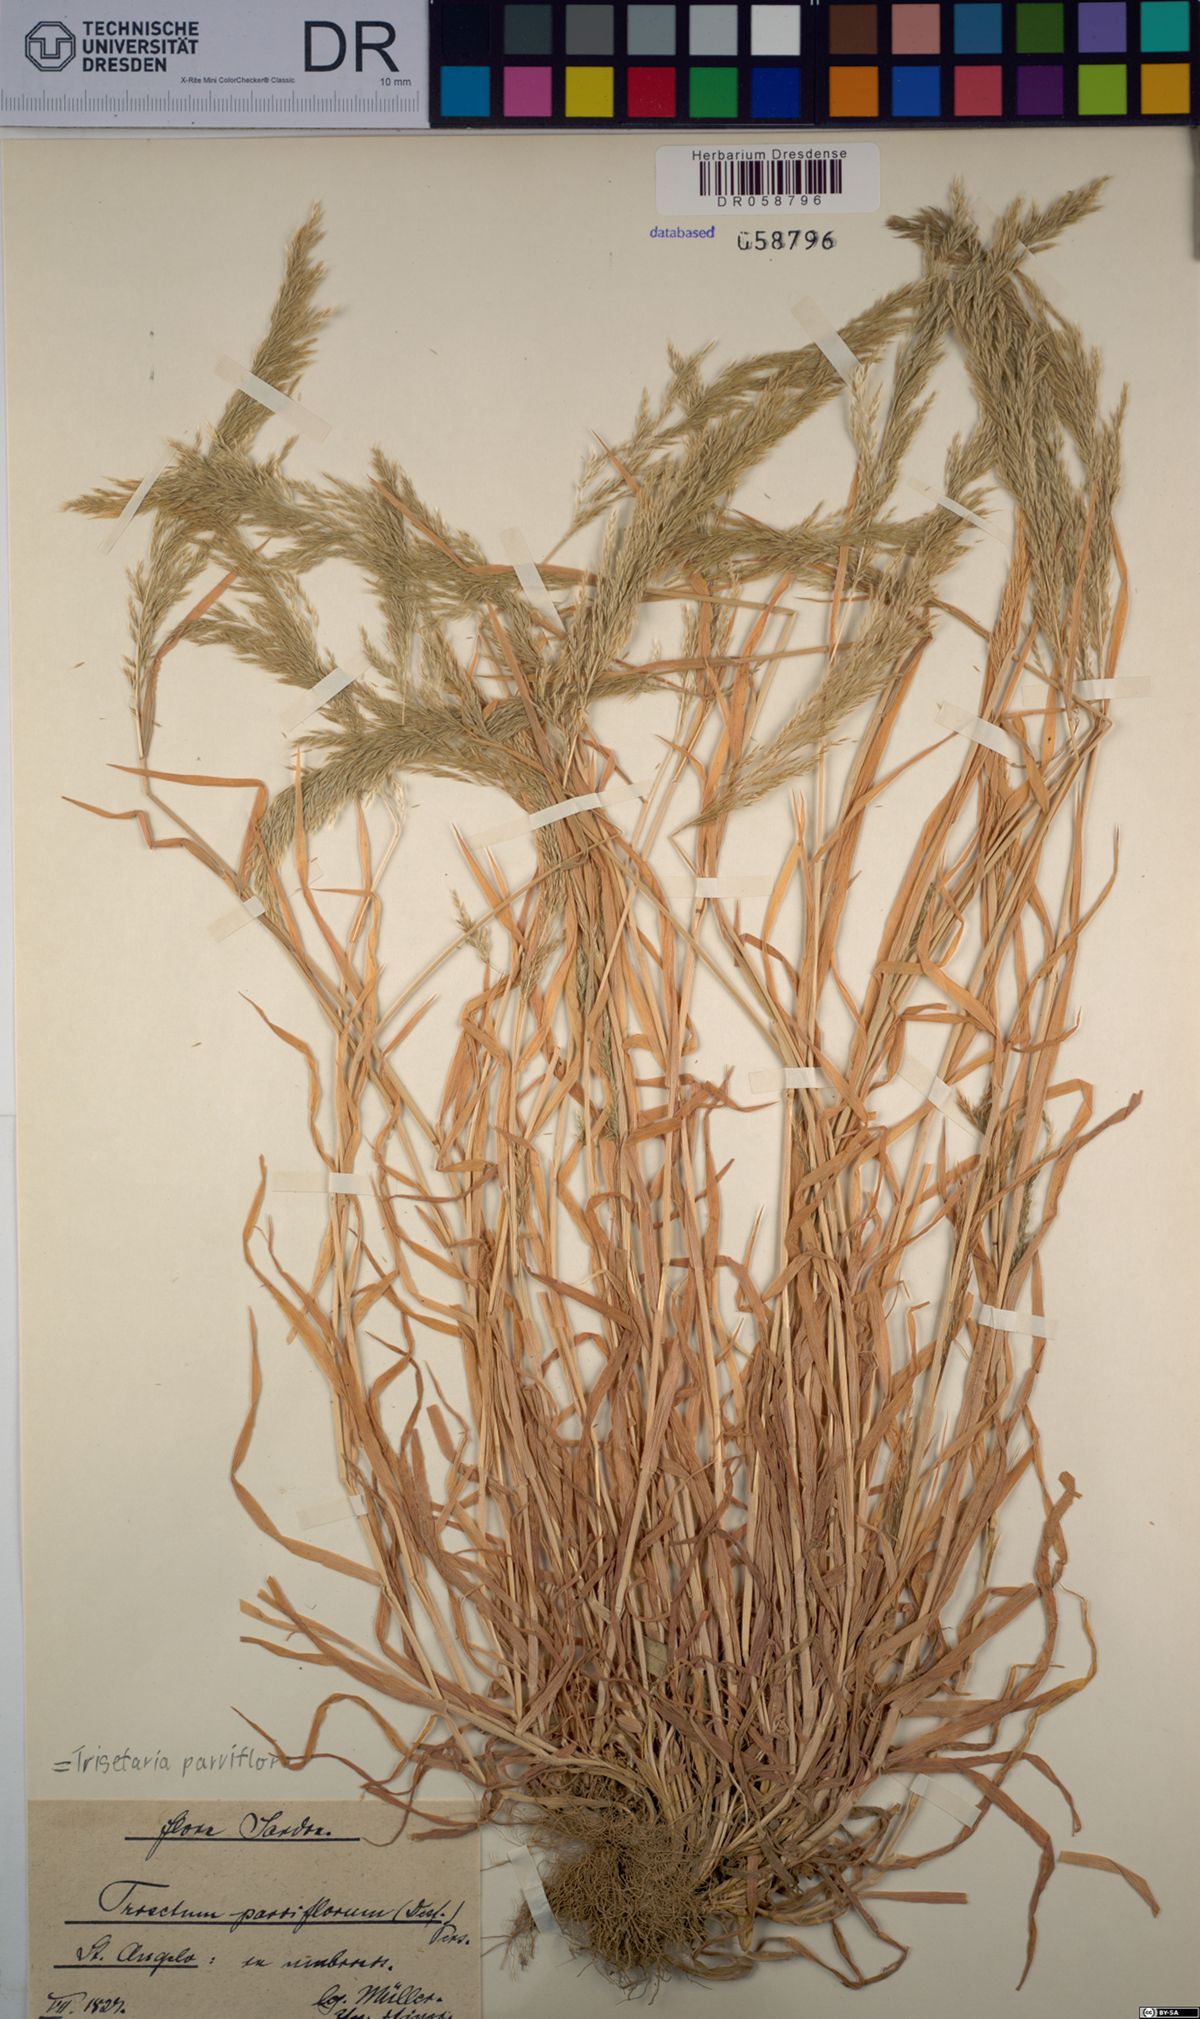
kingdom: Plantae
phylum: Tracheophyta
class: Liliopsida
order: Poales
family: Poaceae
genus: Trisetaria
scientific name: Trisetaria parviflora
